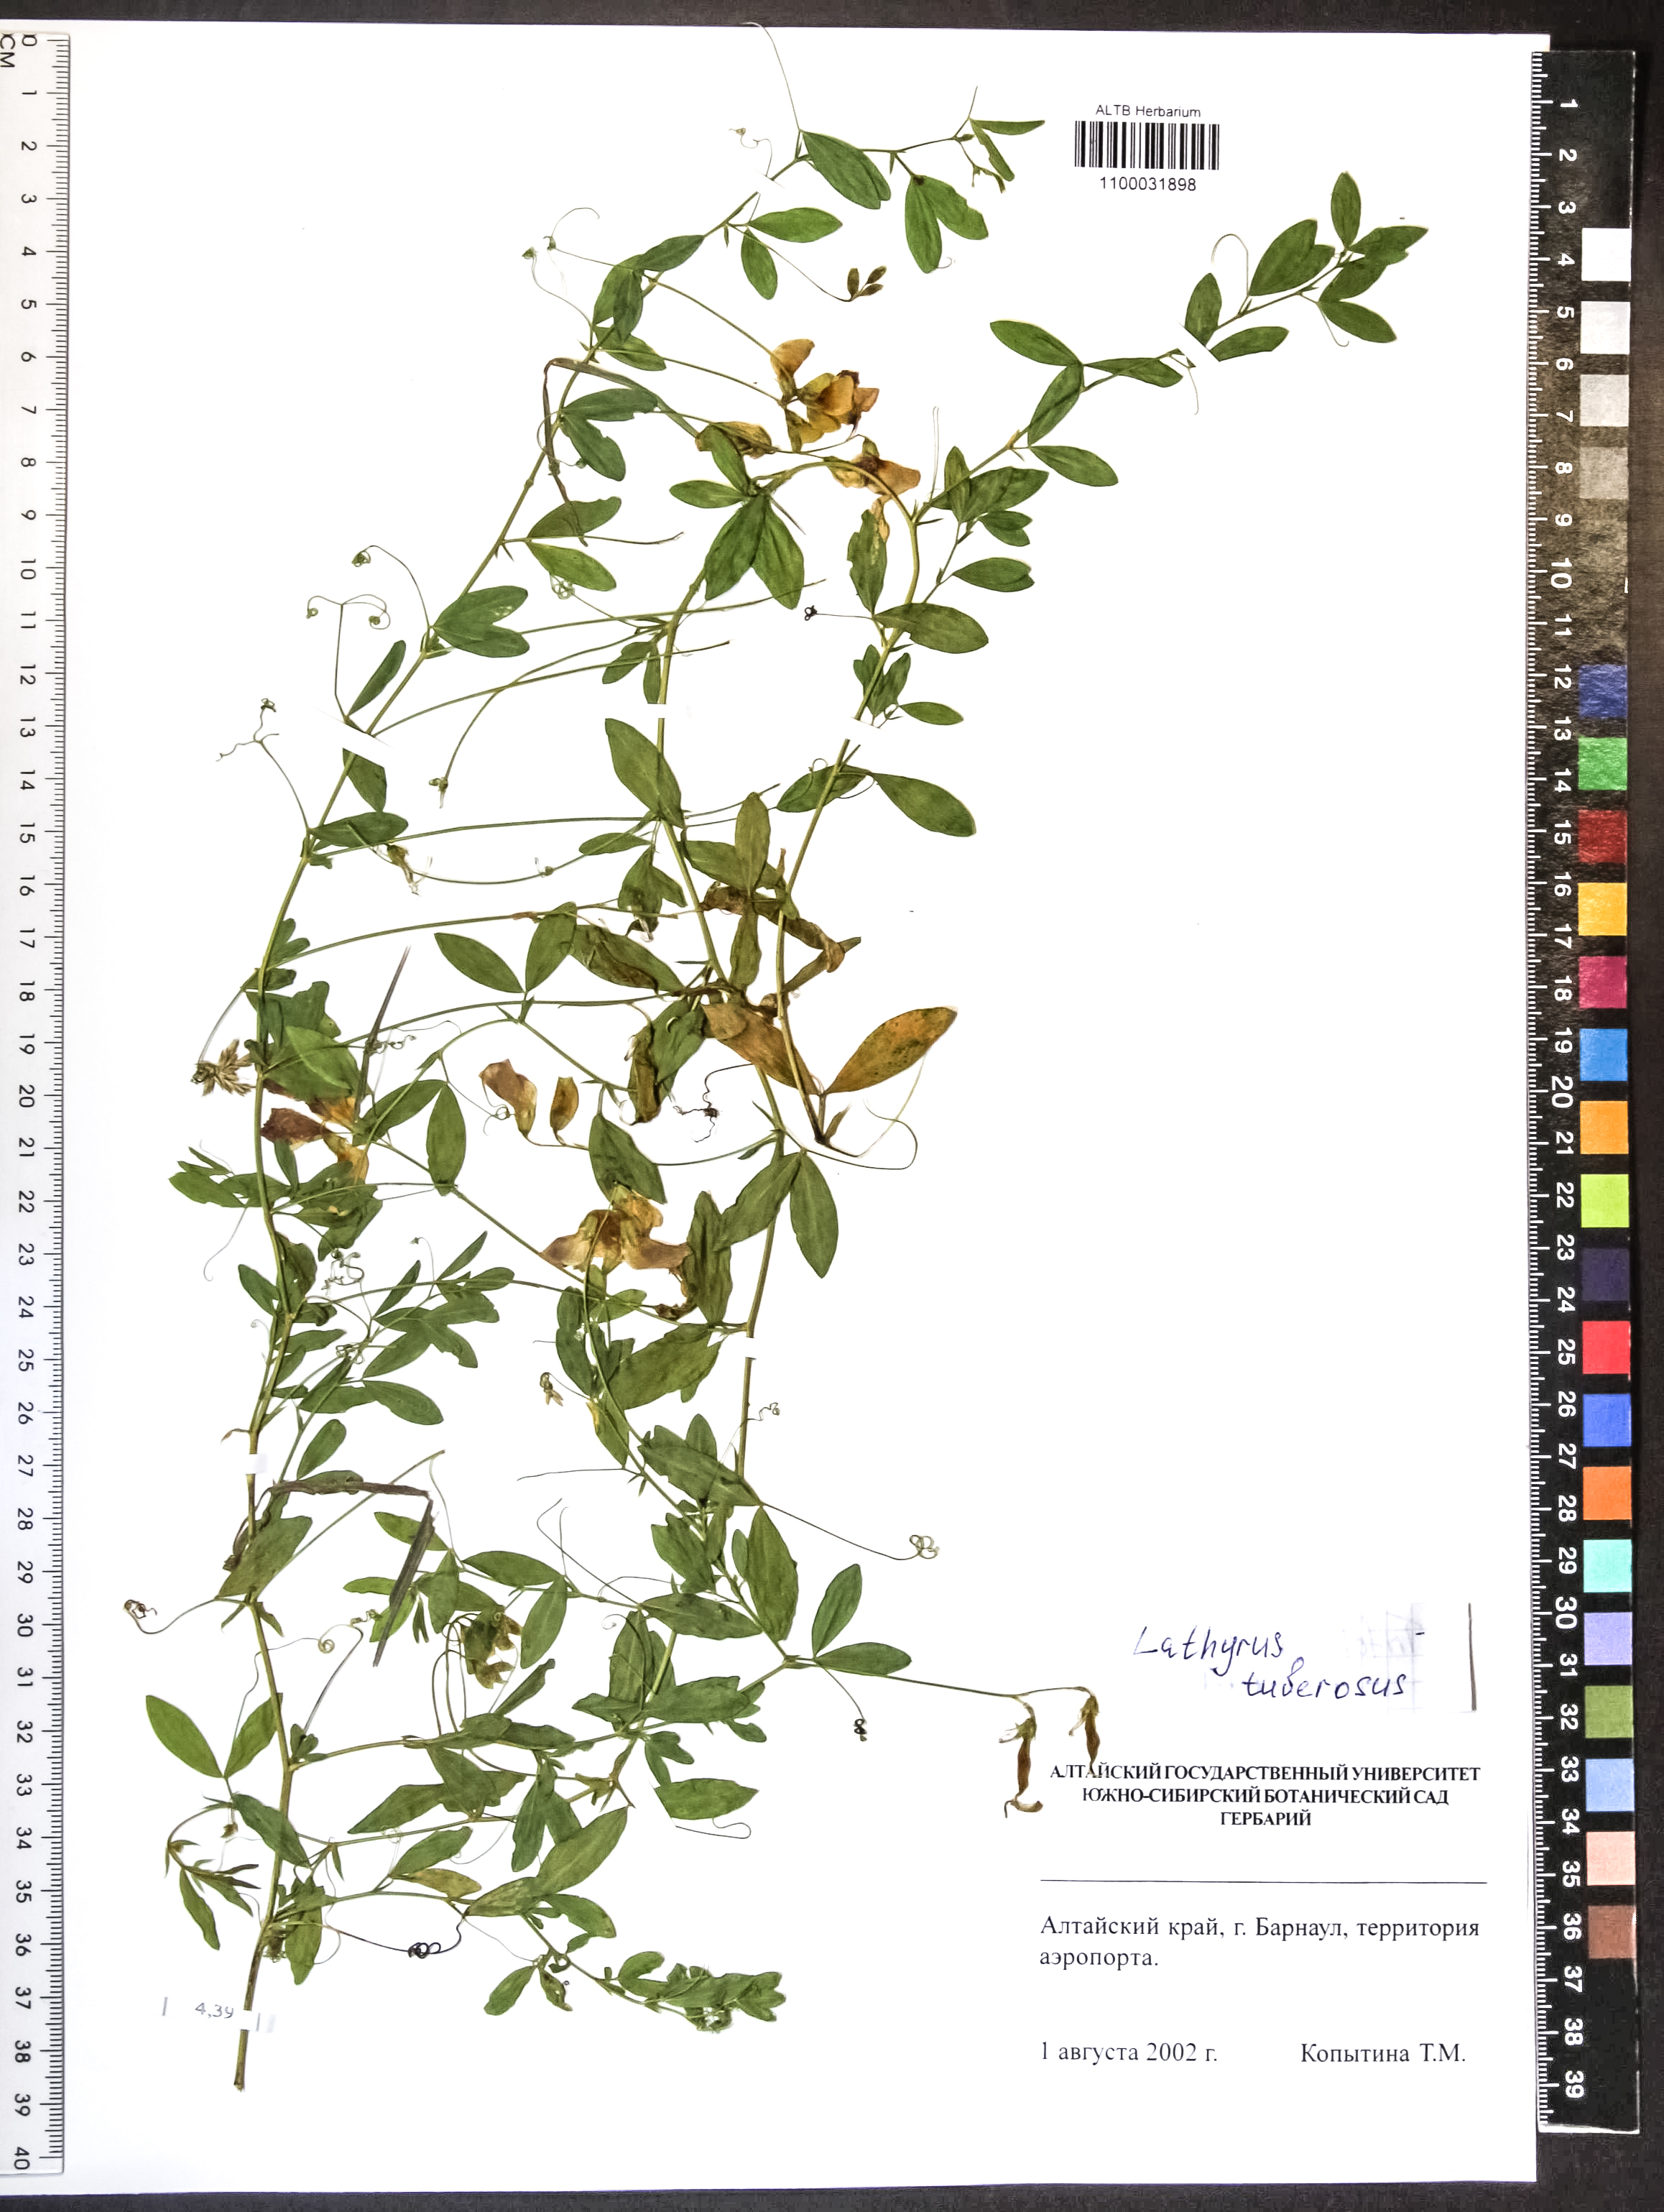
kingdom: Plantae
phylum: Tracheophyta
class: Magnoliopsida
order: Fabales
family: Fabaceae
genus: Lathyrus
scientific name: Lathyrus tuberosus
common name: Tuberous pea
